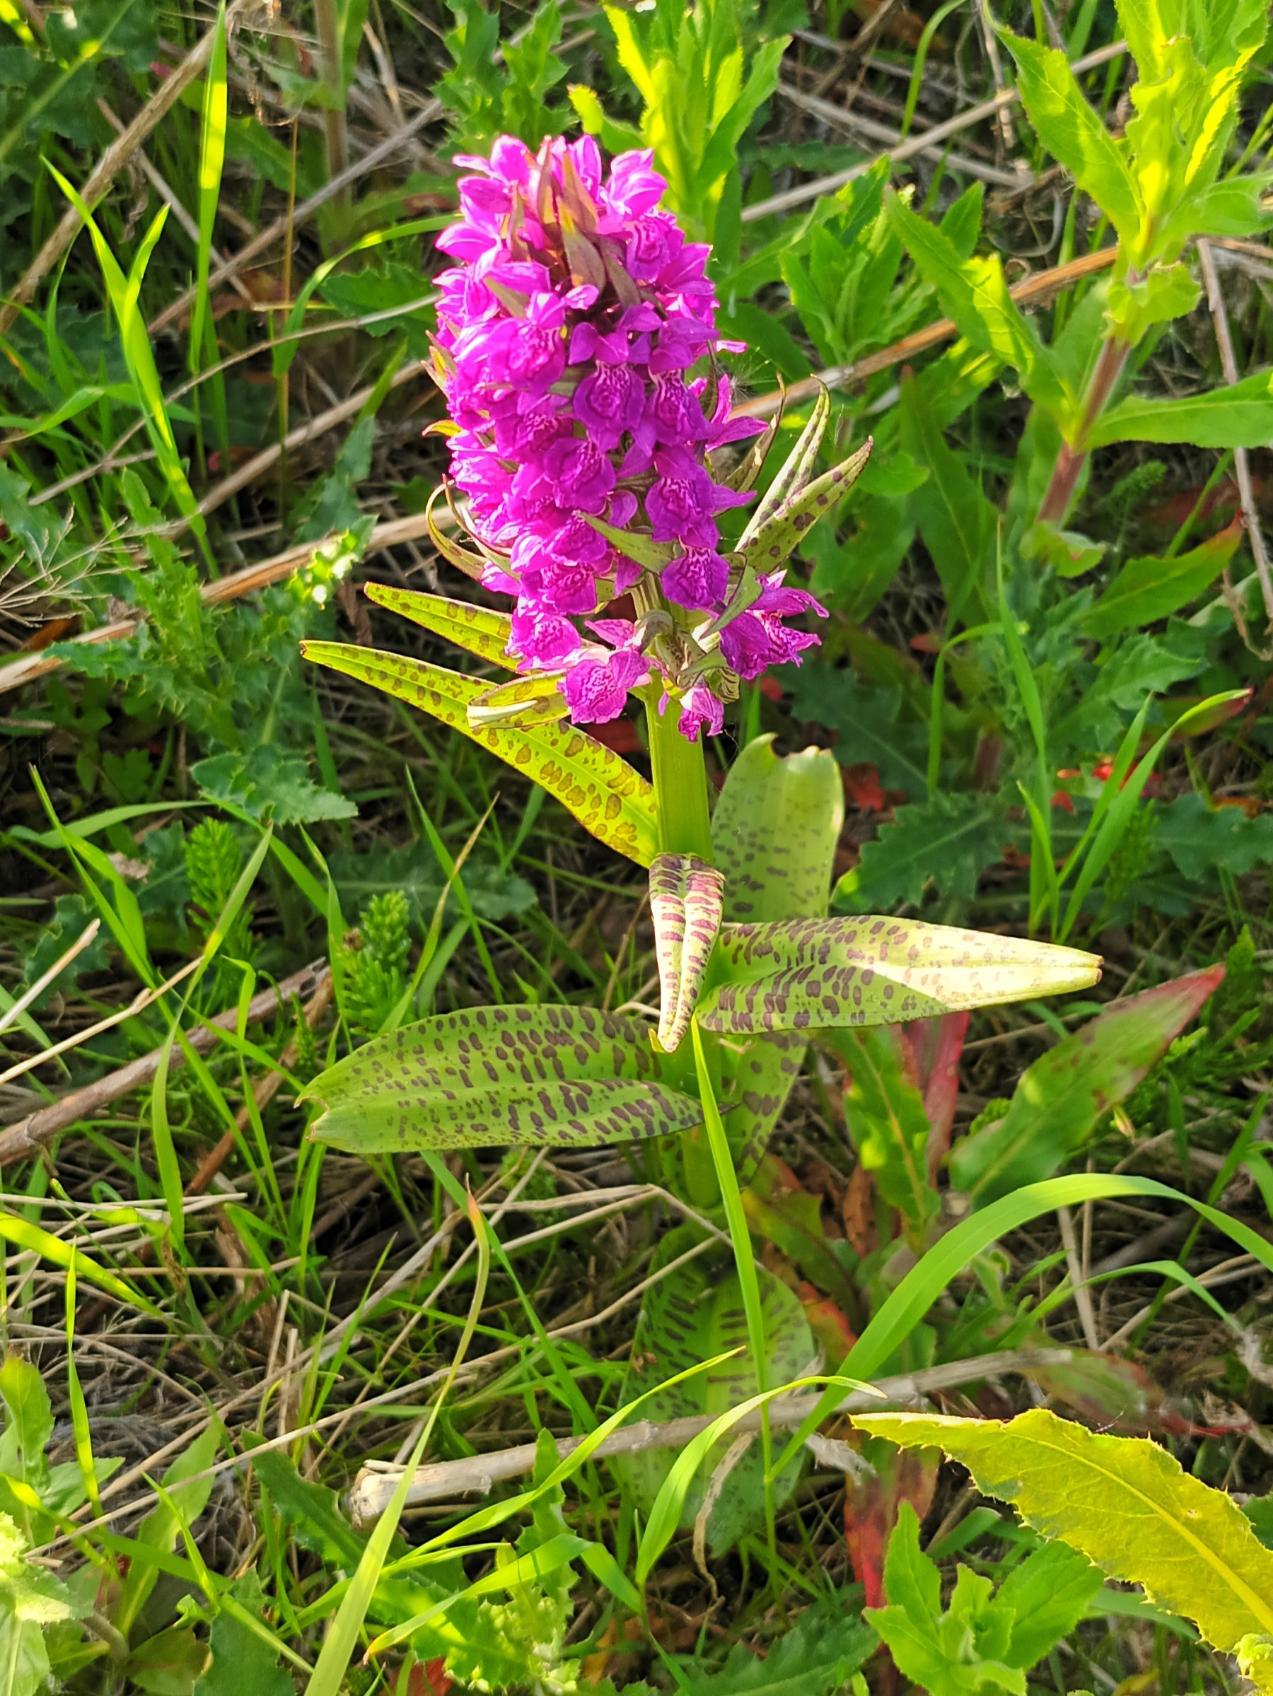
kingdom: Plantae
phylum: Tracheophyta
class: Liliopsida
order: Asparagales
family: Orchidaceae
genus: Dactylorhiza
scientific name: Dactylorhiza majalis
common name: Maj-gøgeurt
